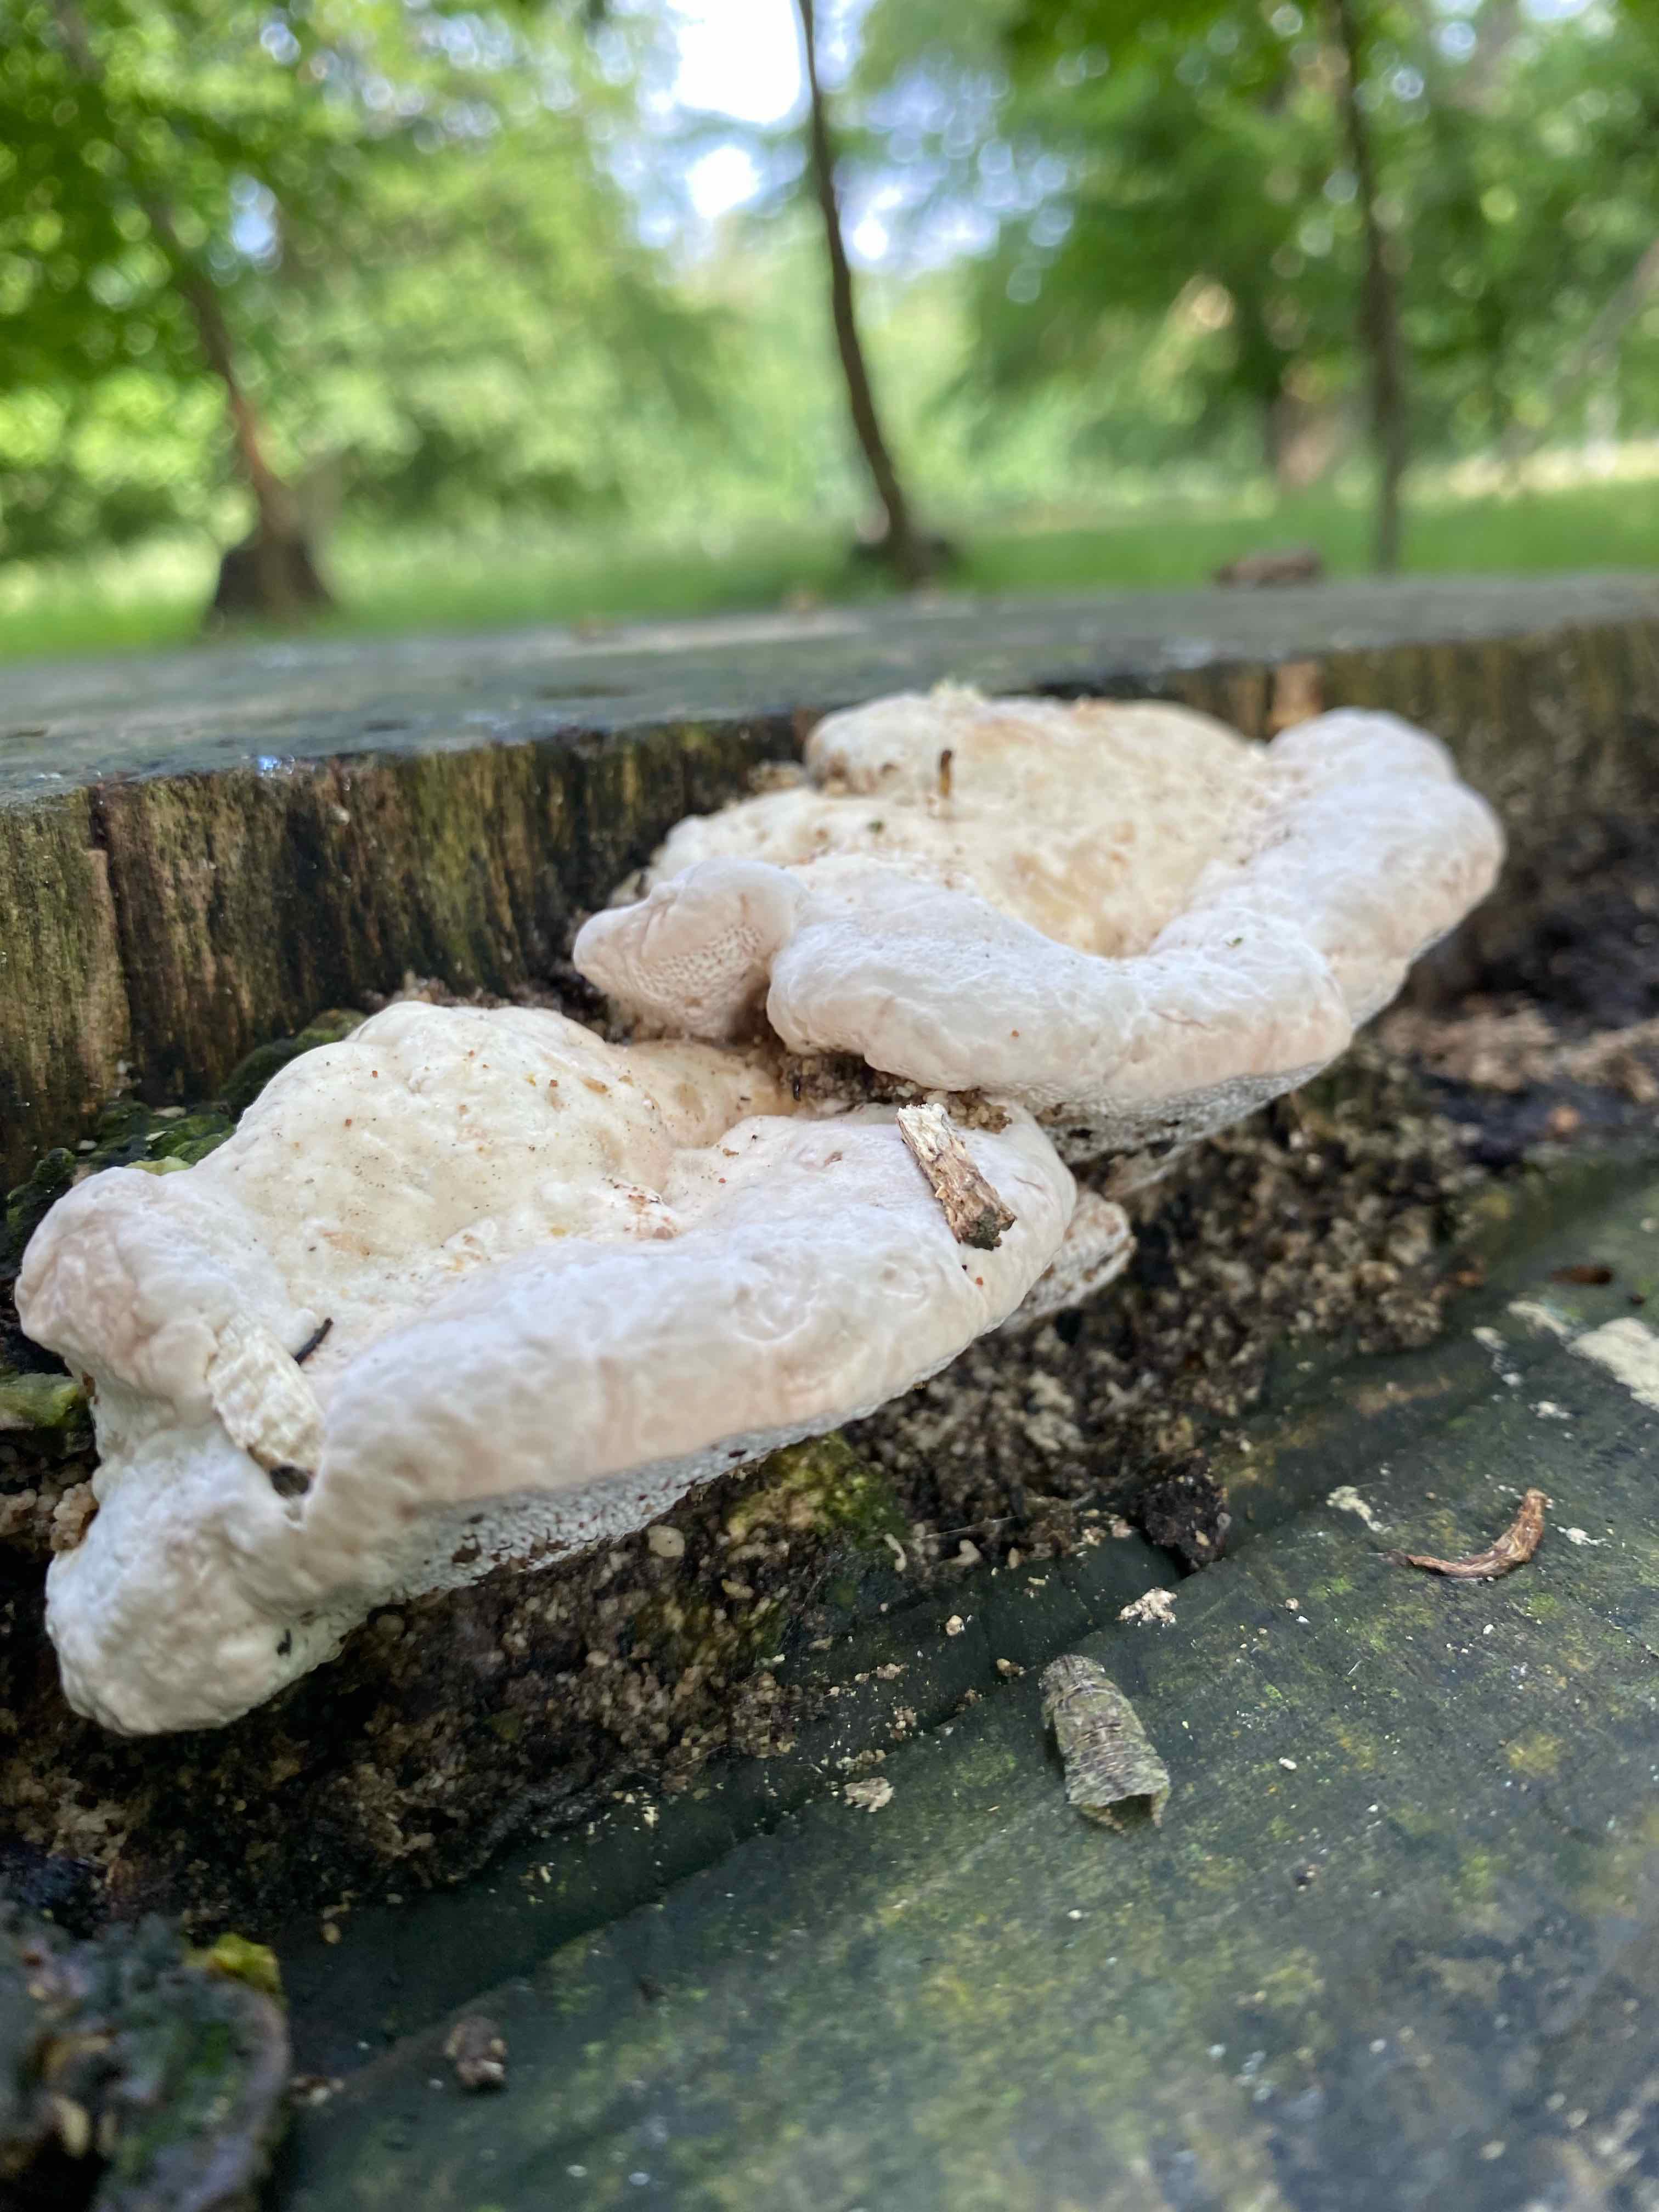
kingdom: Fungi
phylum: Basidiomycota
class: Agaricomycetes
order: Polyporales
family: Polyporaceae
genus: Trametes
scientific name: Trametes gibbosa
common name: puklet læderporesvamp
